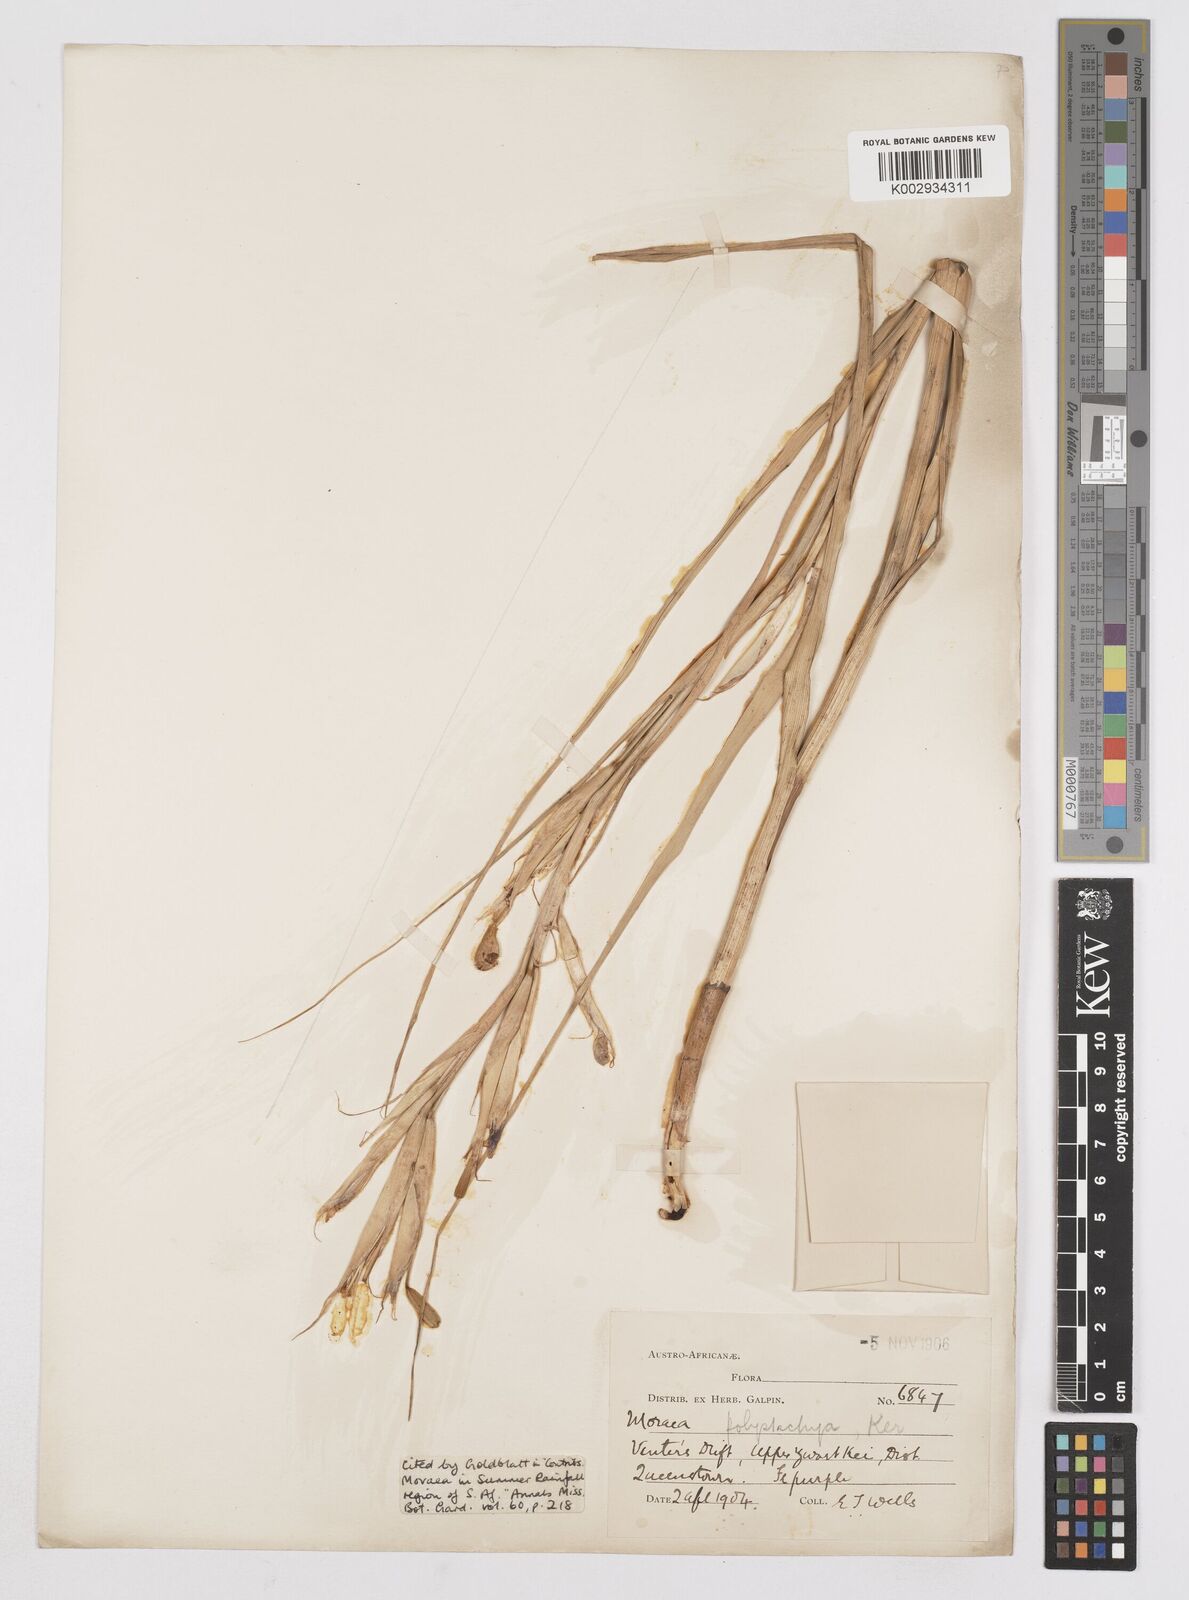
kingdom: Plantae
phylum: Tracheophyta
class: Liliopsida
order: Asparagales
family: Iridaceae
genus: Moraea
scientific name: Moraea polystachya
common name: Blue-tulip
